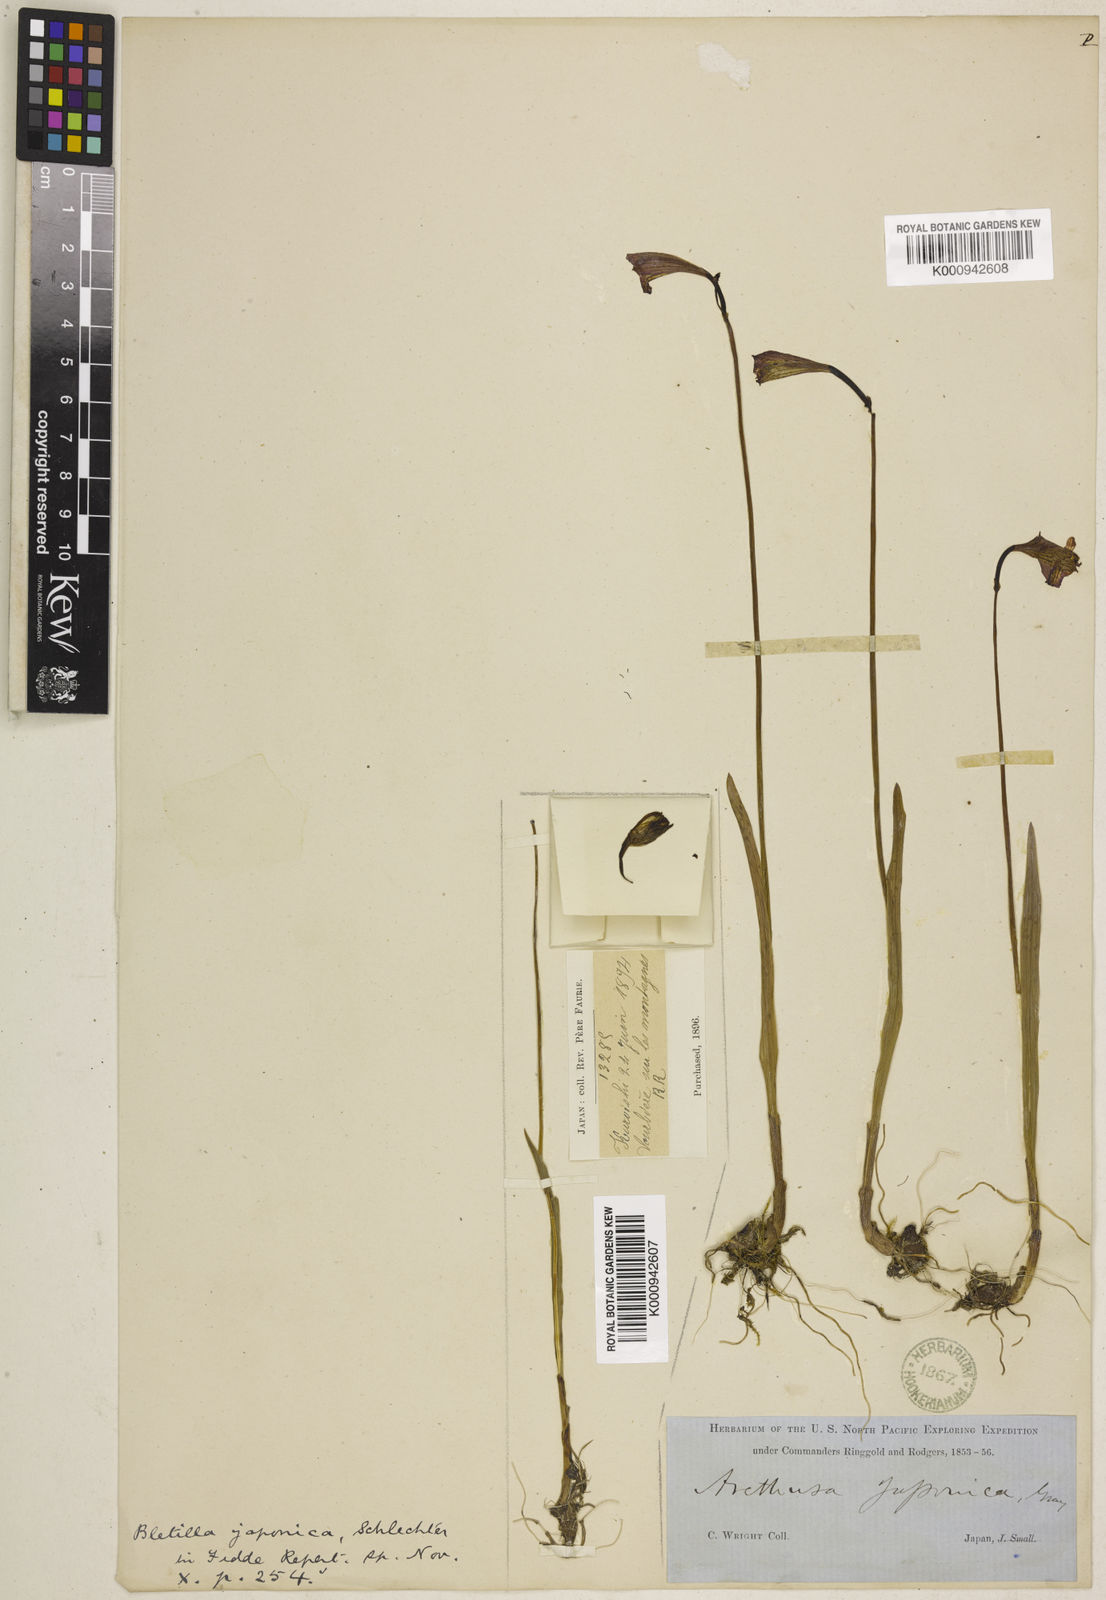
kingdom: Plantae
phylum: Tracheophyta
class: Liliopsida
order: Asparagales
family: Orchidaceae
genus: Eleorchis
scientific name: Eleorchis japonica
